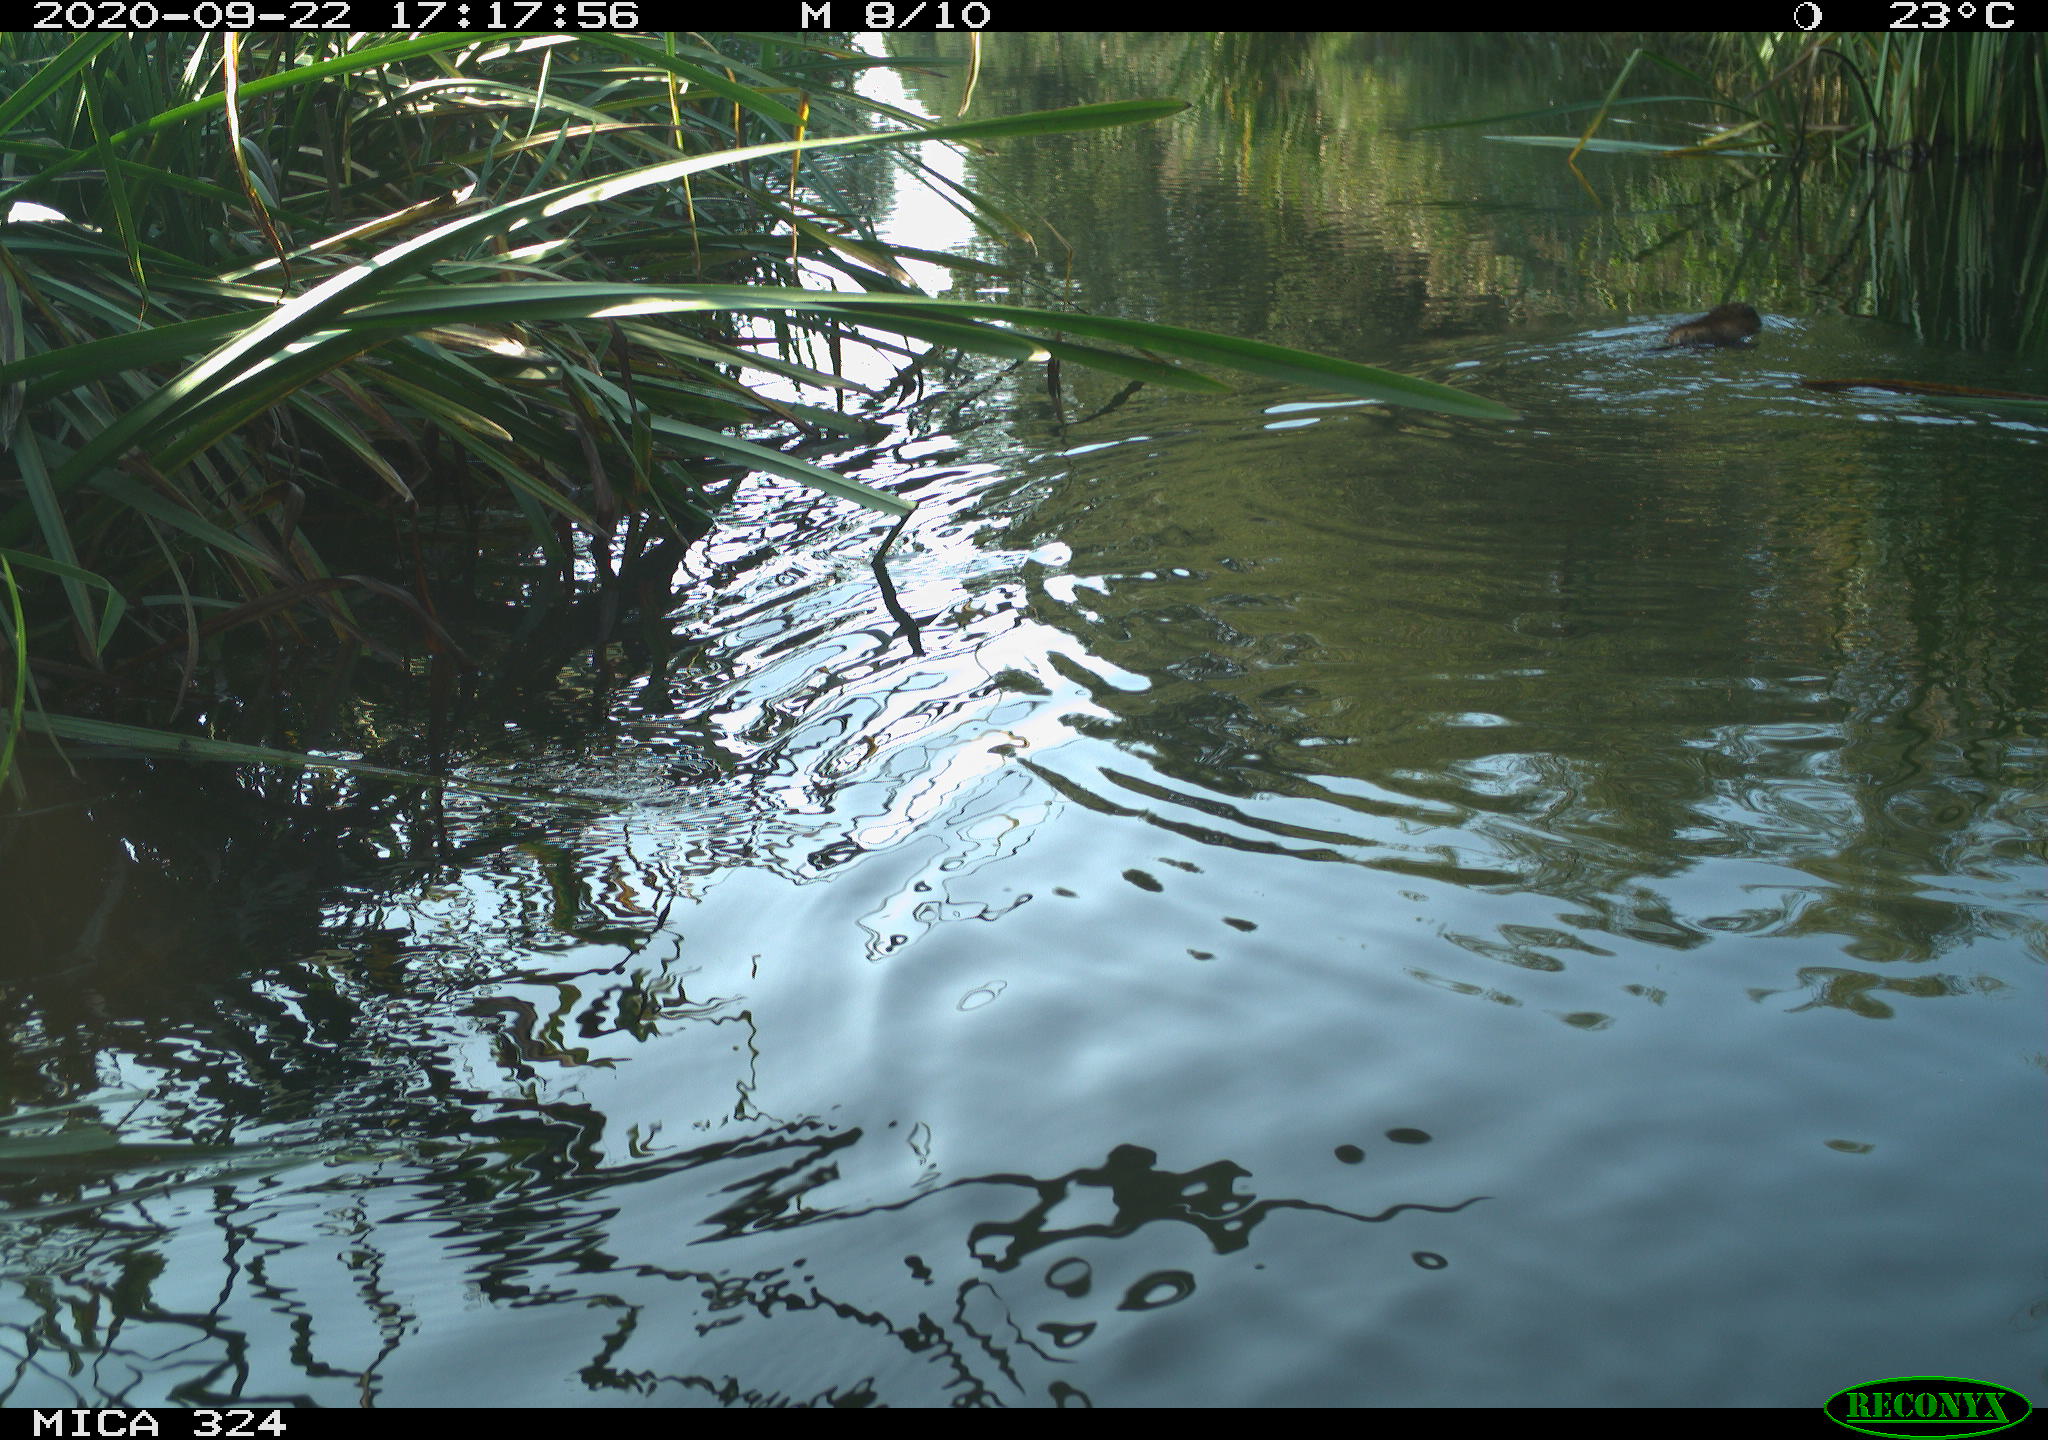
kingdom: Animalia
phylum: Chordata
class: Mammalia
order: Rodentia
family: Cricetidae
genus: Ondatra
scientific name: Ondatra zibethicus
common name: Muskrat
